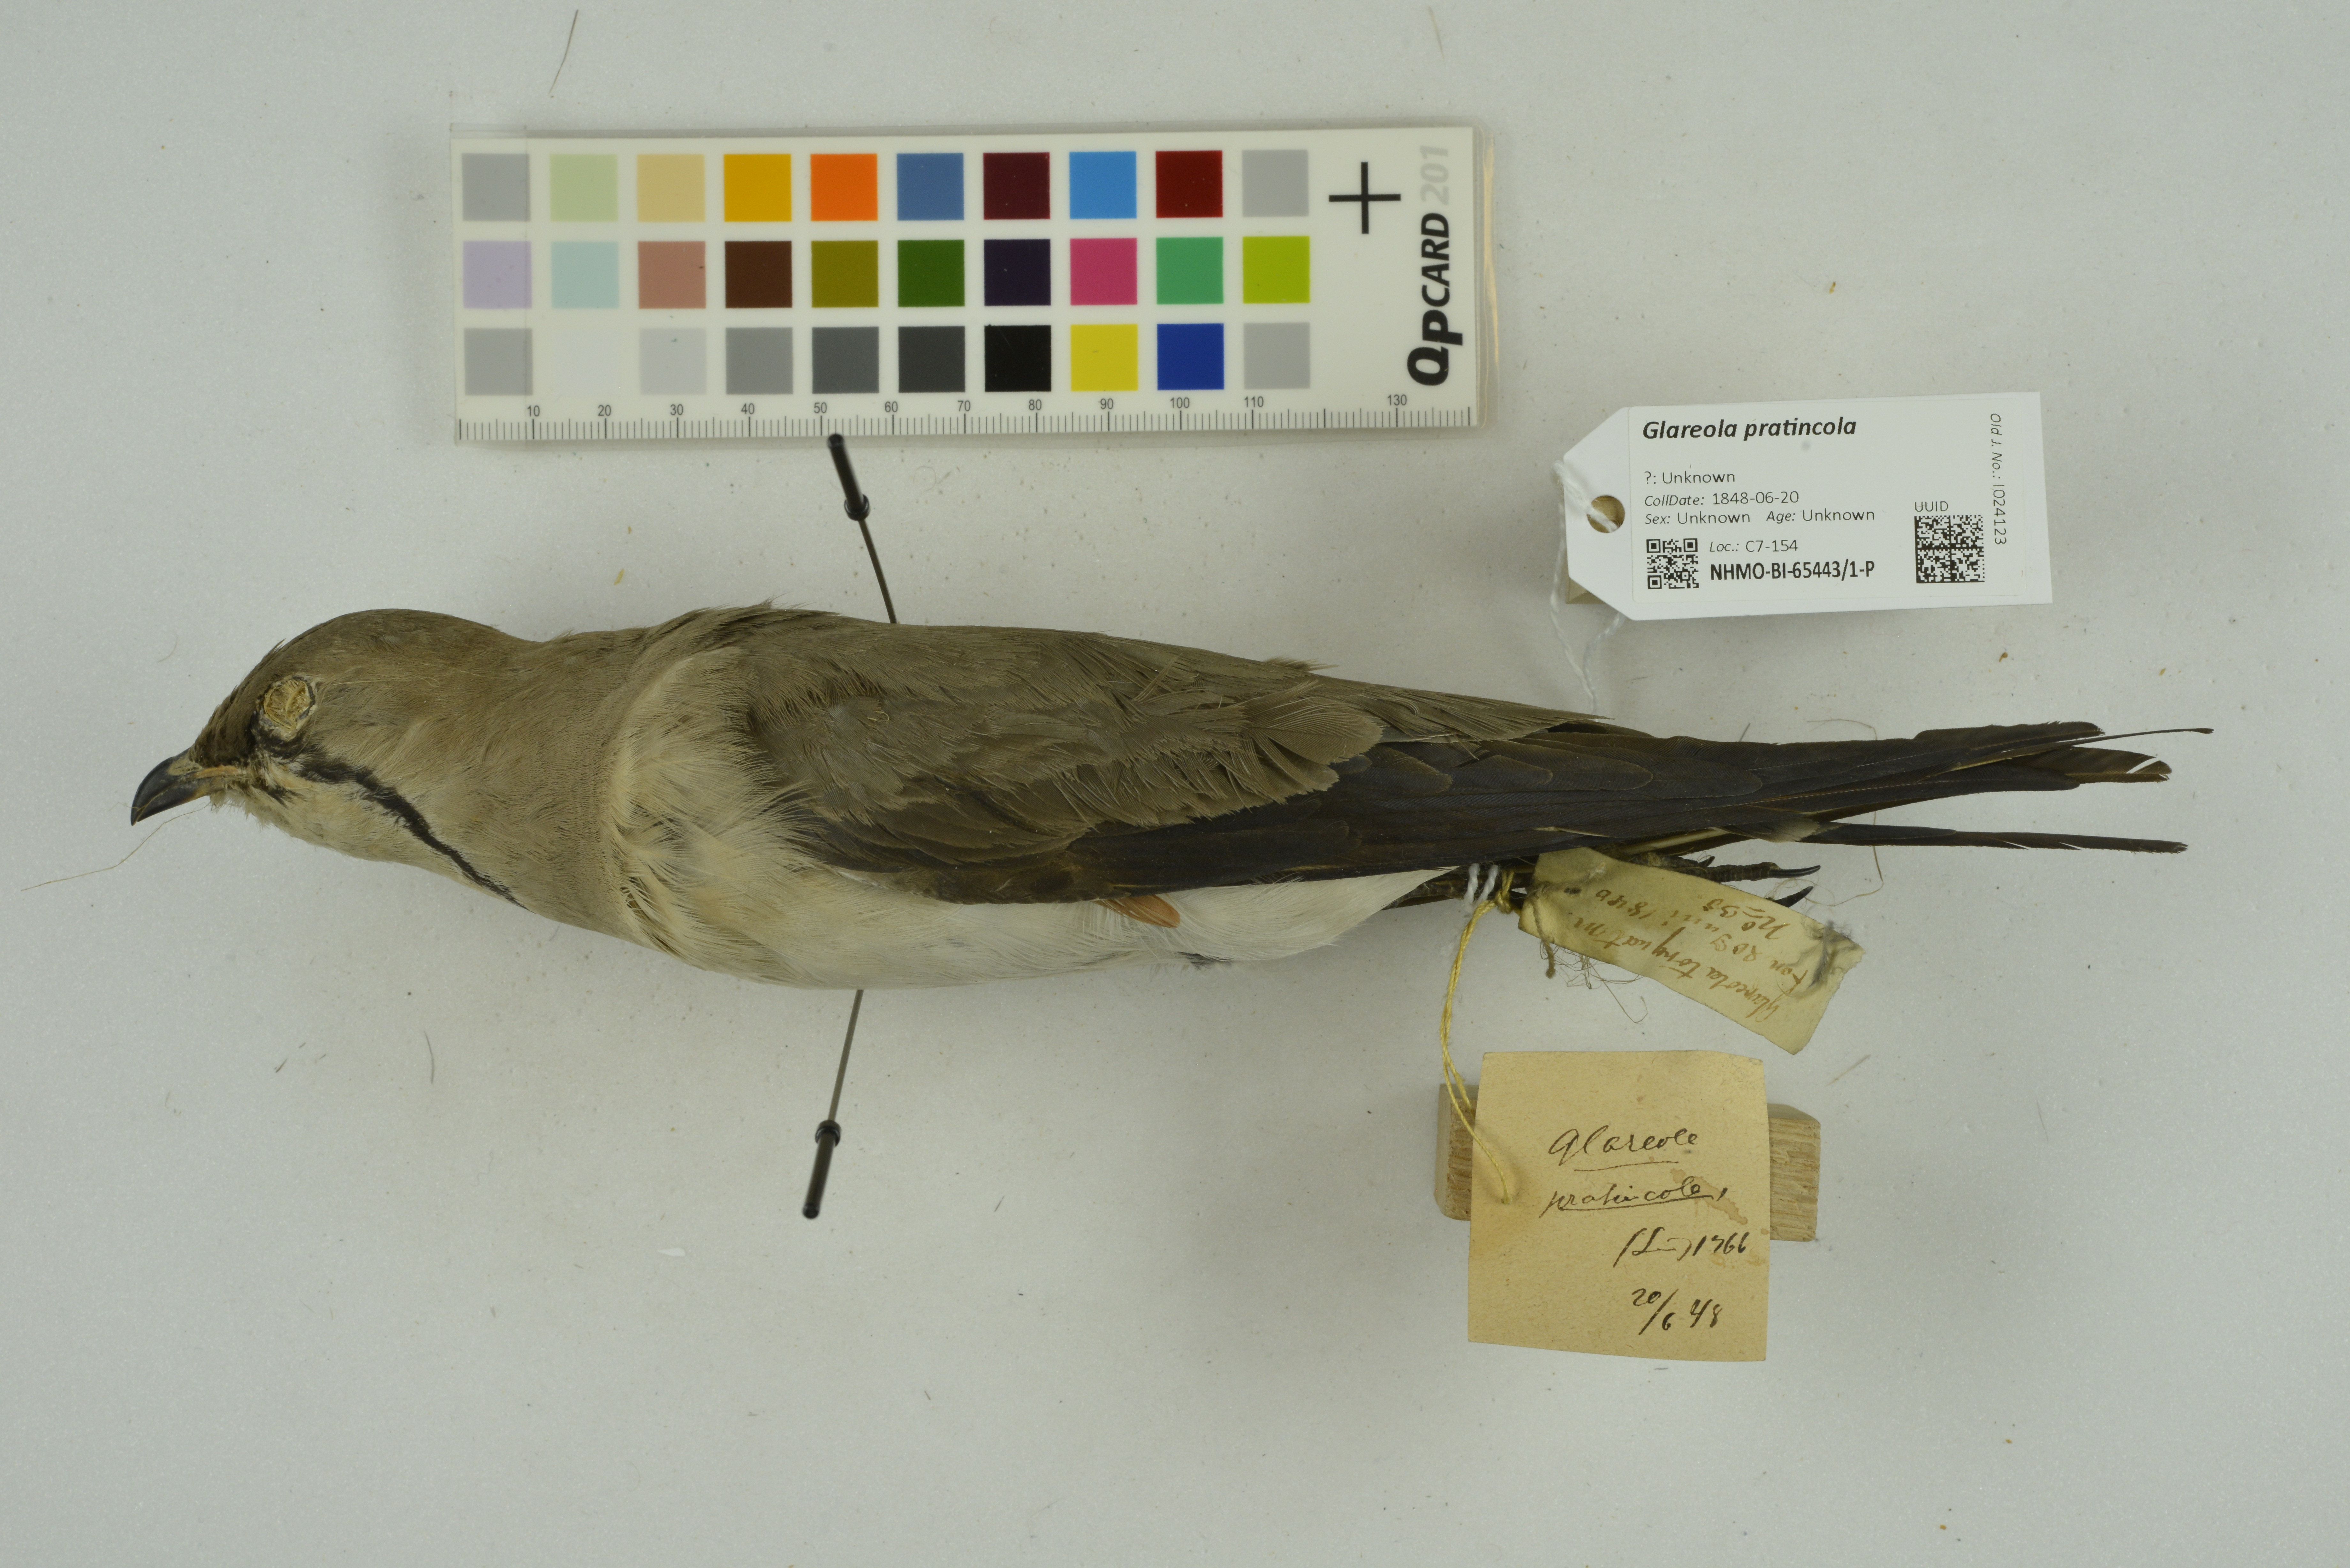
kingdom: Animalia
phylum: Chordata
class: Aves
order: Charadriiformes
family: Glareolidae
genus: Glareola
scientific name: Glareola pratincola
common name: Collared pratincole
